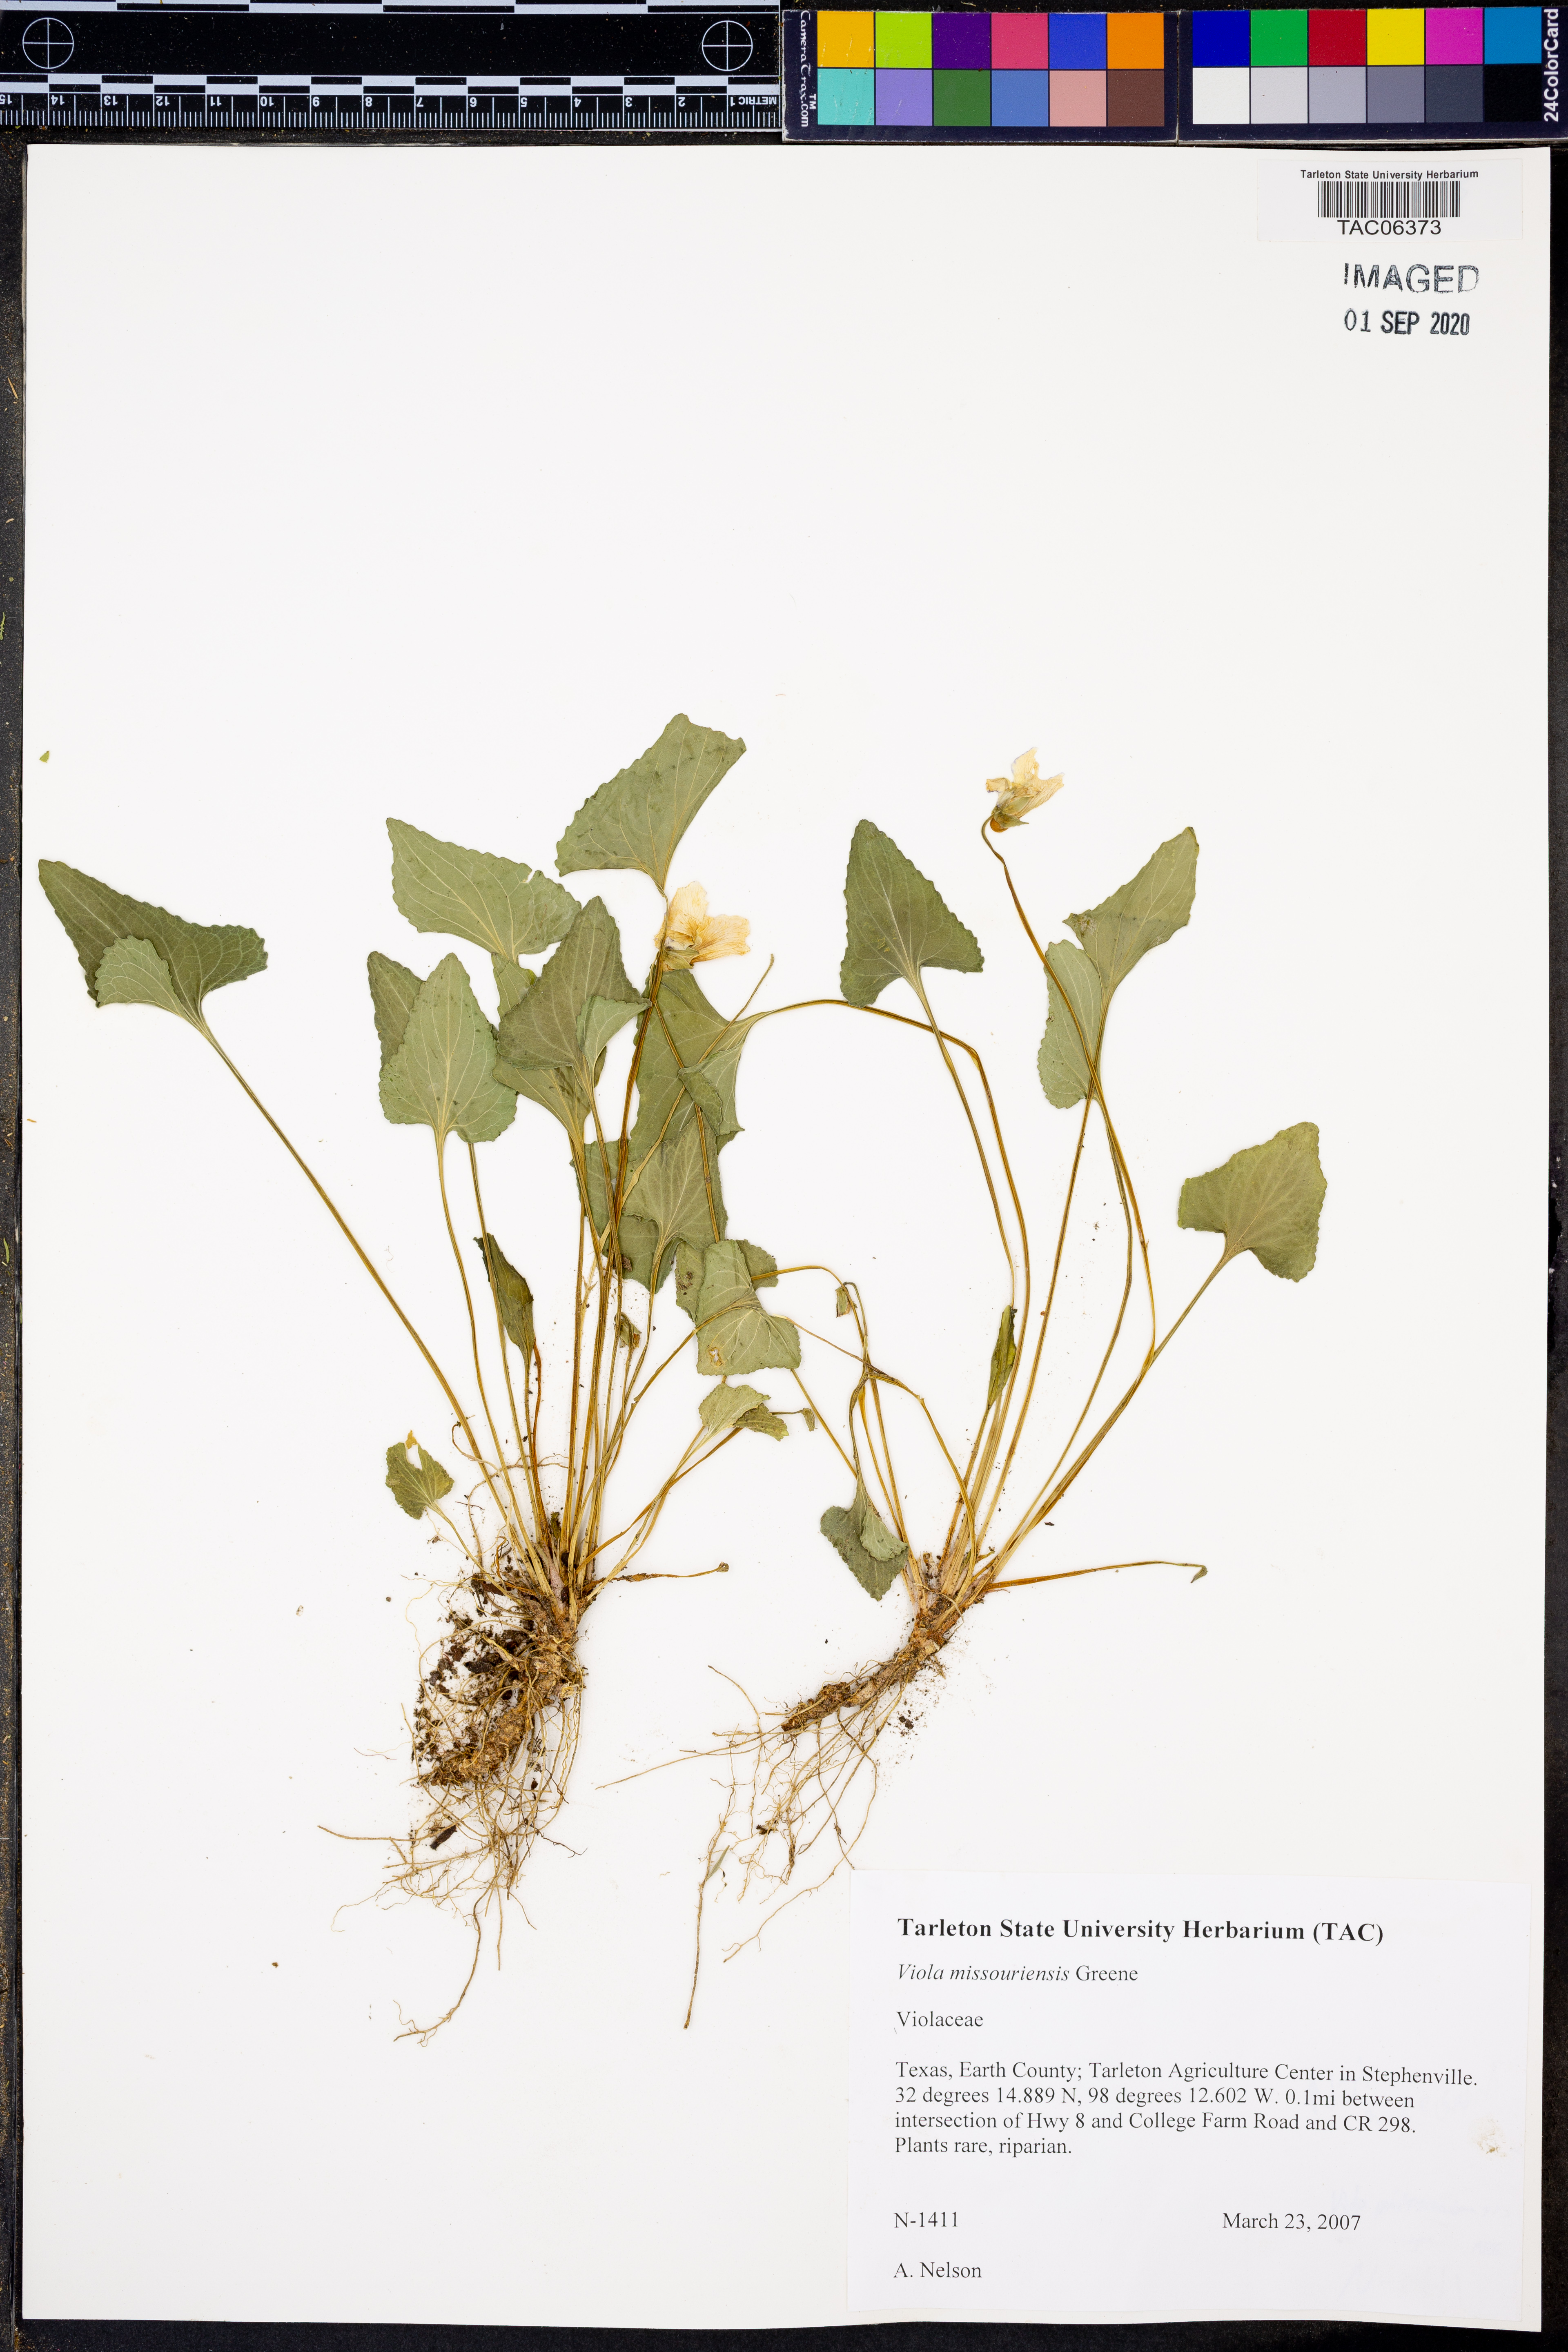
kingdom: Plantae
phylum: Tracheophyta
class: Magnoliopsida
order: Malpighiales
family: Violaceae
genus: Viola
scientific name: Viola missouriensis
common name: Missouri violet
